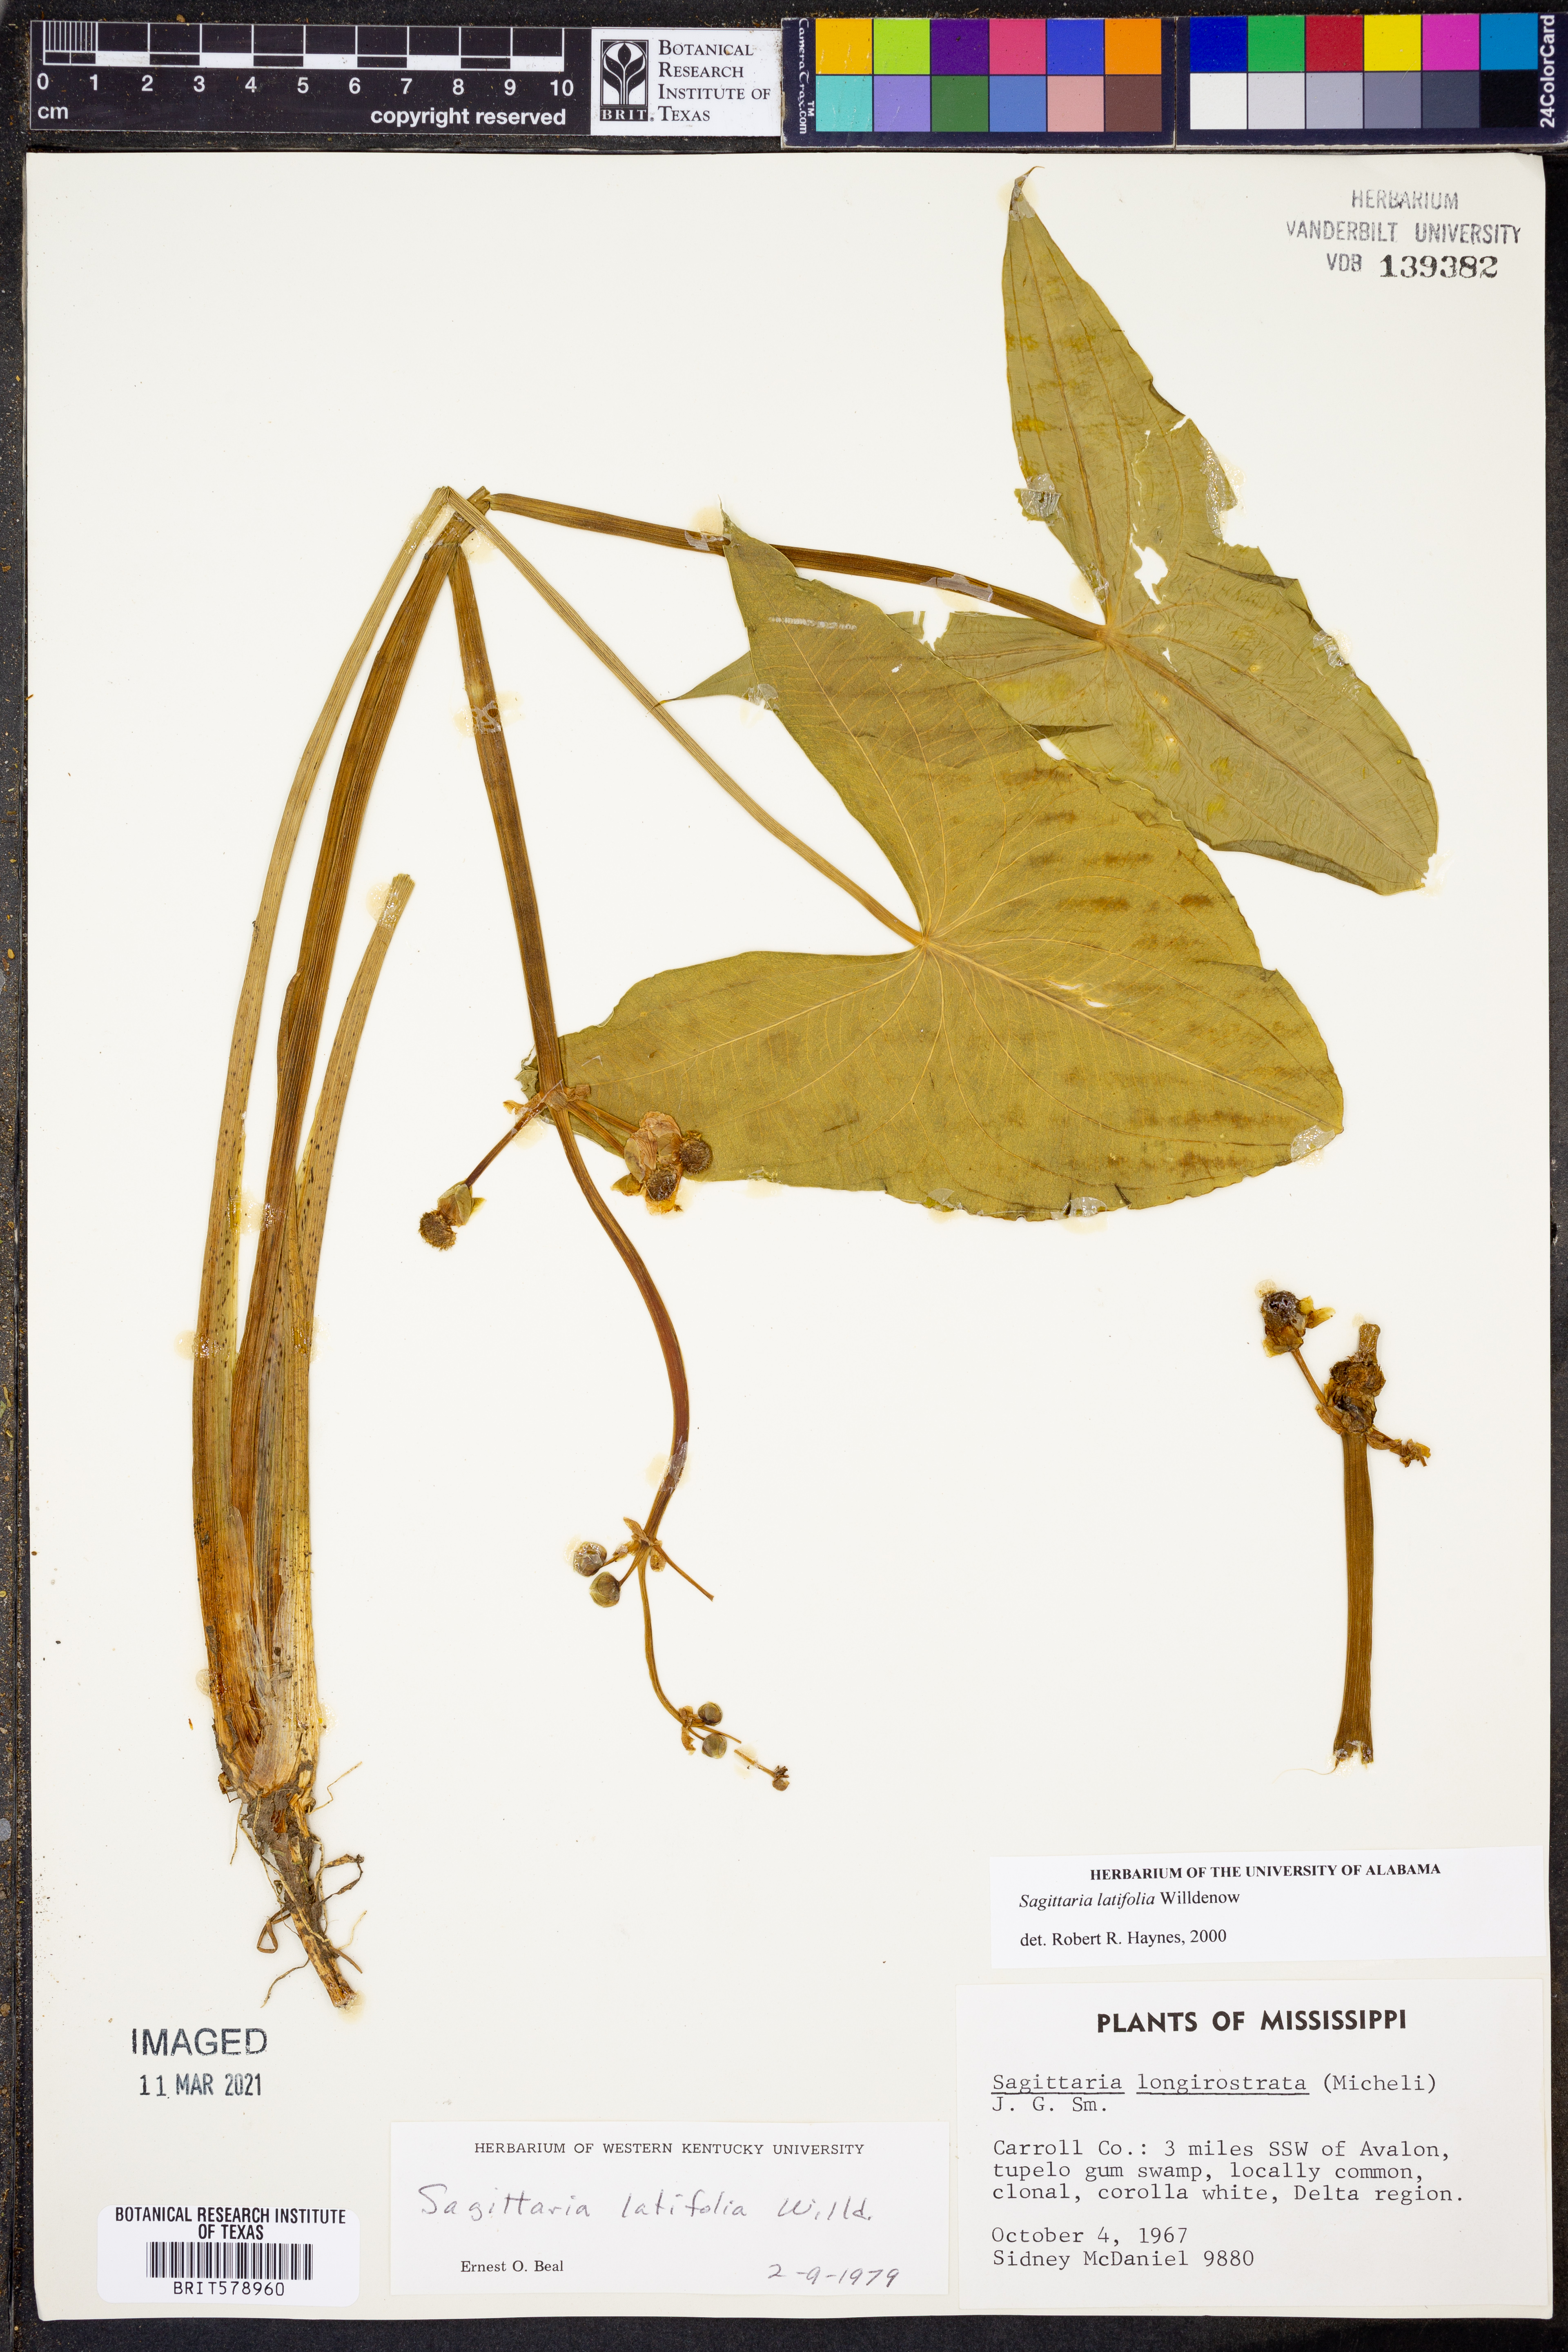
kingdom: Plantae
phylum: Tracheophyta
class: Liliopsida
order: Alismatales
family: Alismataceae
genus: Sagittaria
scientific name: Sagittaria latifolia
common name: Duck-potato
